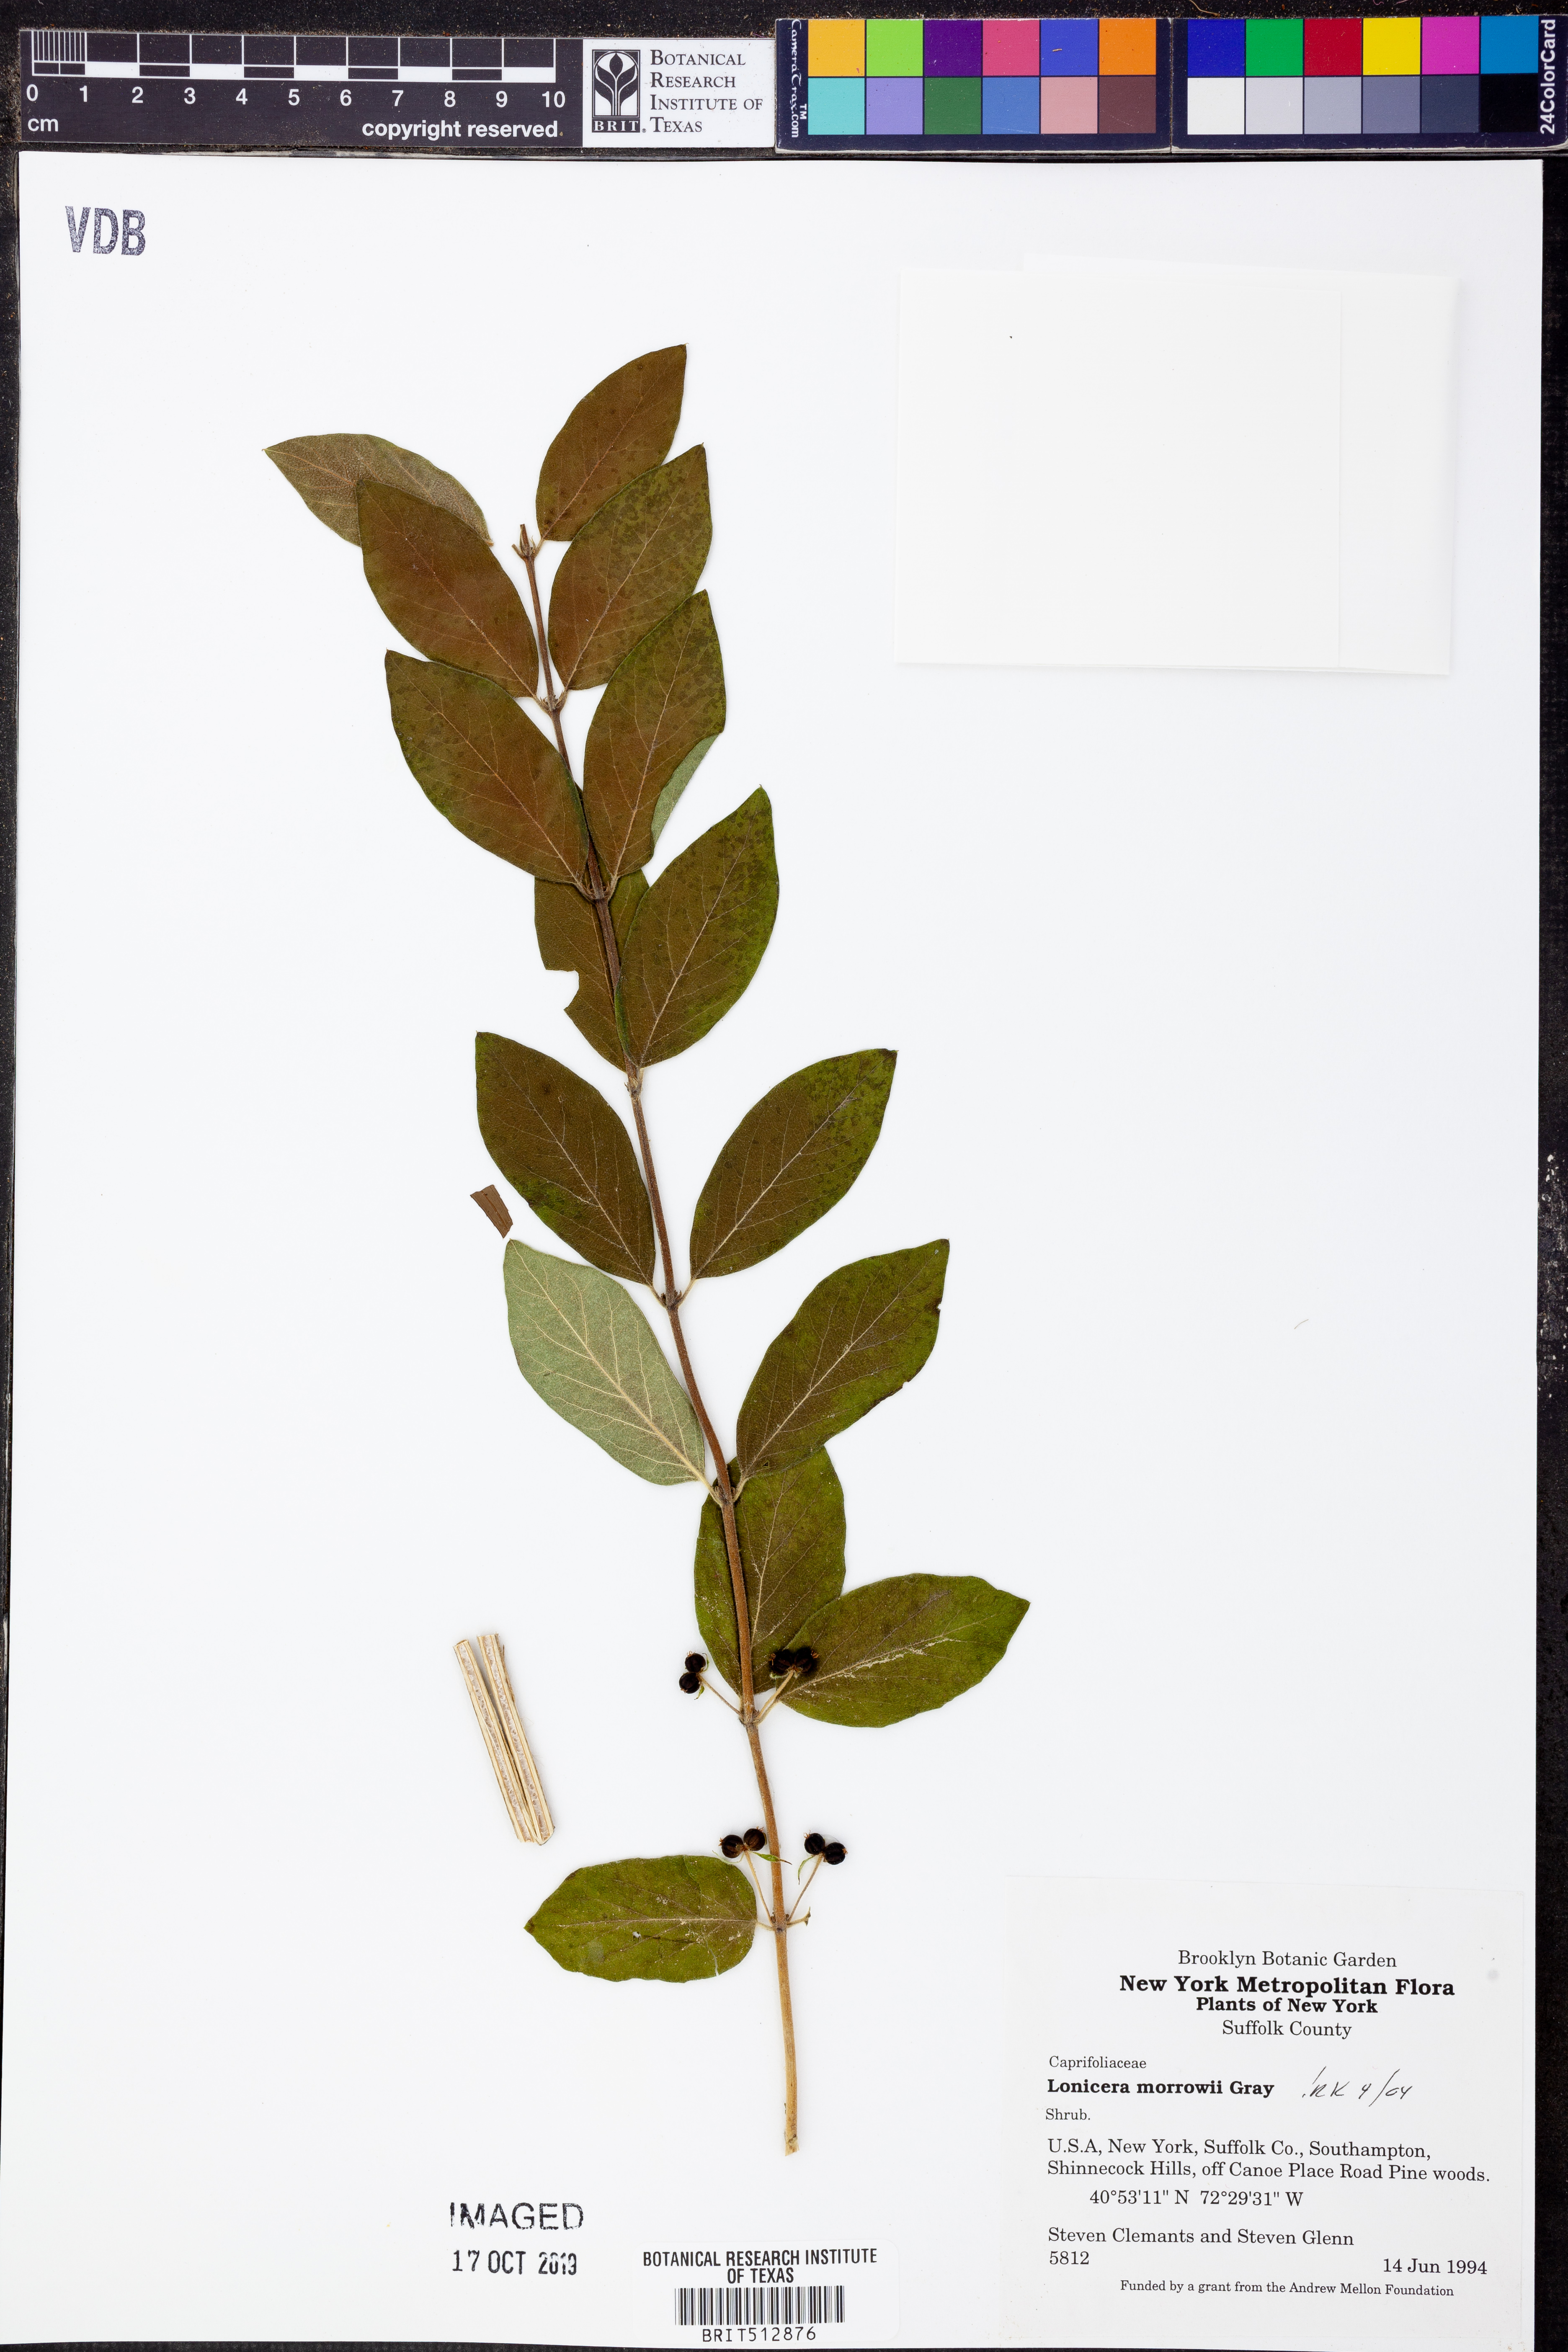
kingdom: Plantae
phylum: Tracheophyta
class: Magnoliopsida
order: Dipsacales
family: Caprifoliaceae
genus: Lonicera
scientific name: Lonicera morrowii
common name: Morrow's honeysuckle
